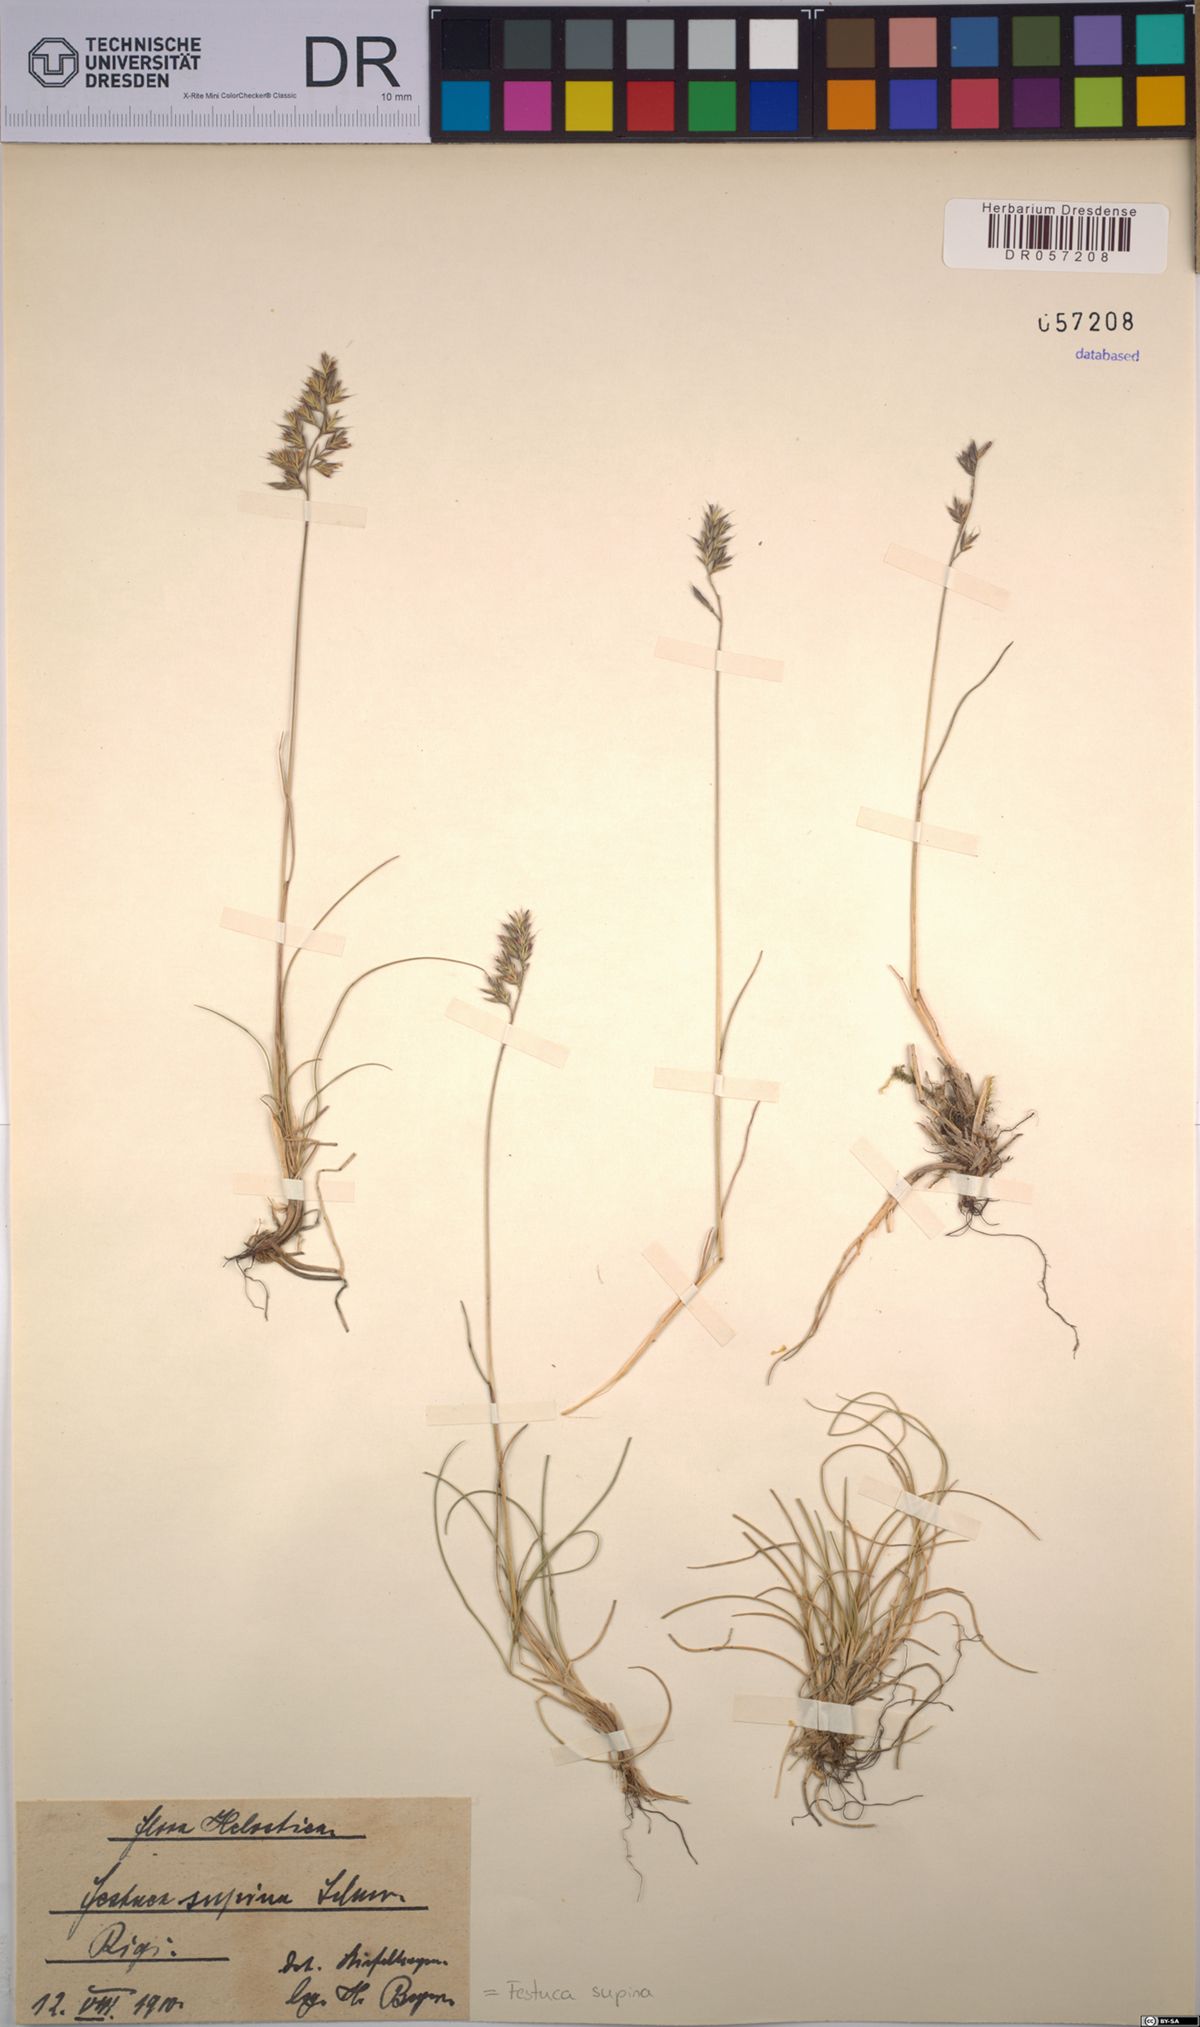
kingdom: Plantae
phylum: Tracheophyta
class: Liliopsida
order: Poales
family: Poaceae
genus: Festuca
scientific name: Festuca airoides
